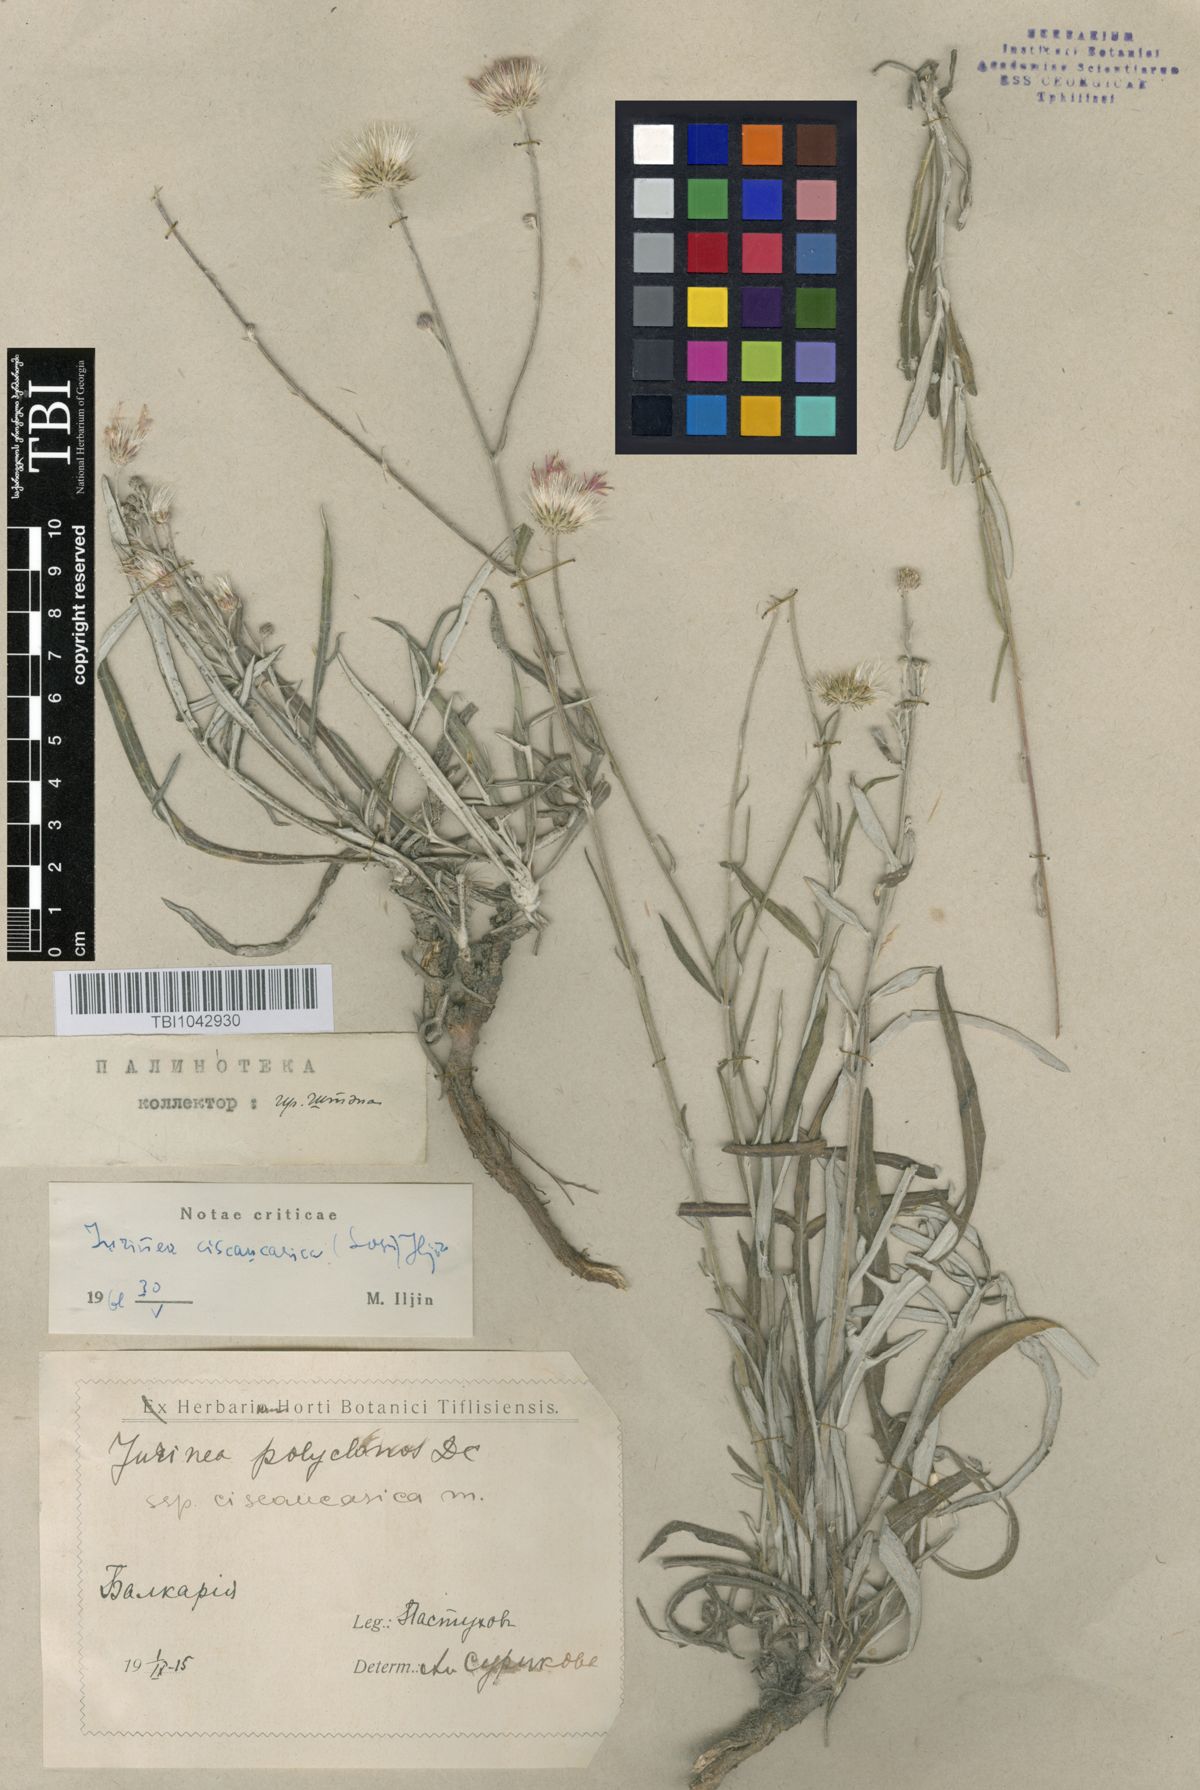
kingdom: Plantae
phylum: Tracheophyta
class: Magnoliopsida
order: Asterales
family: Asteraceae
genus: Jurinea
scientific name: Jurinea ciscaucasica
